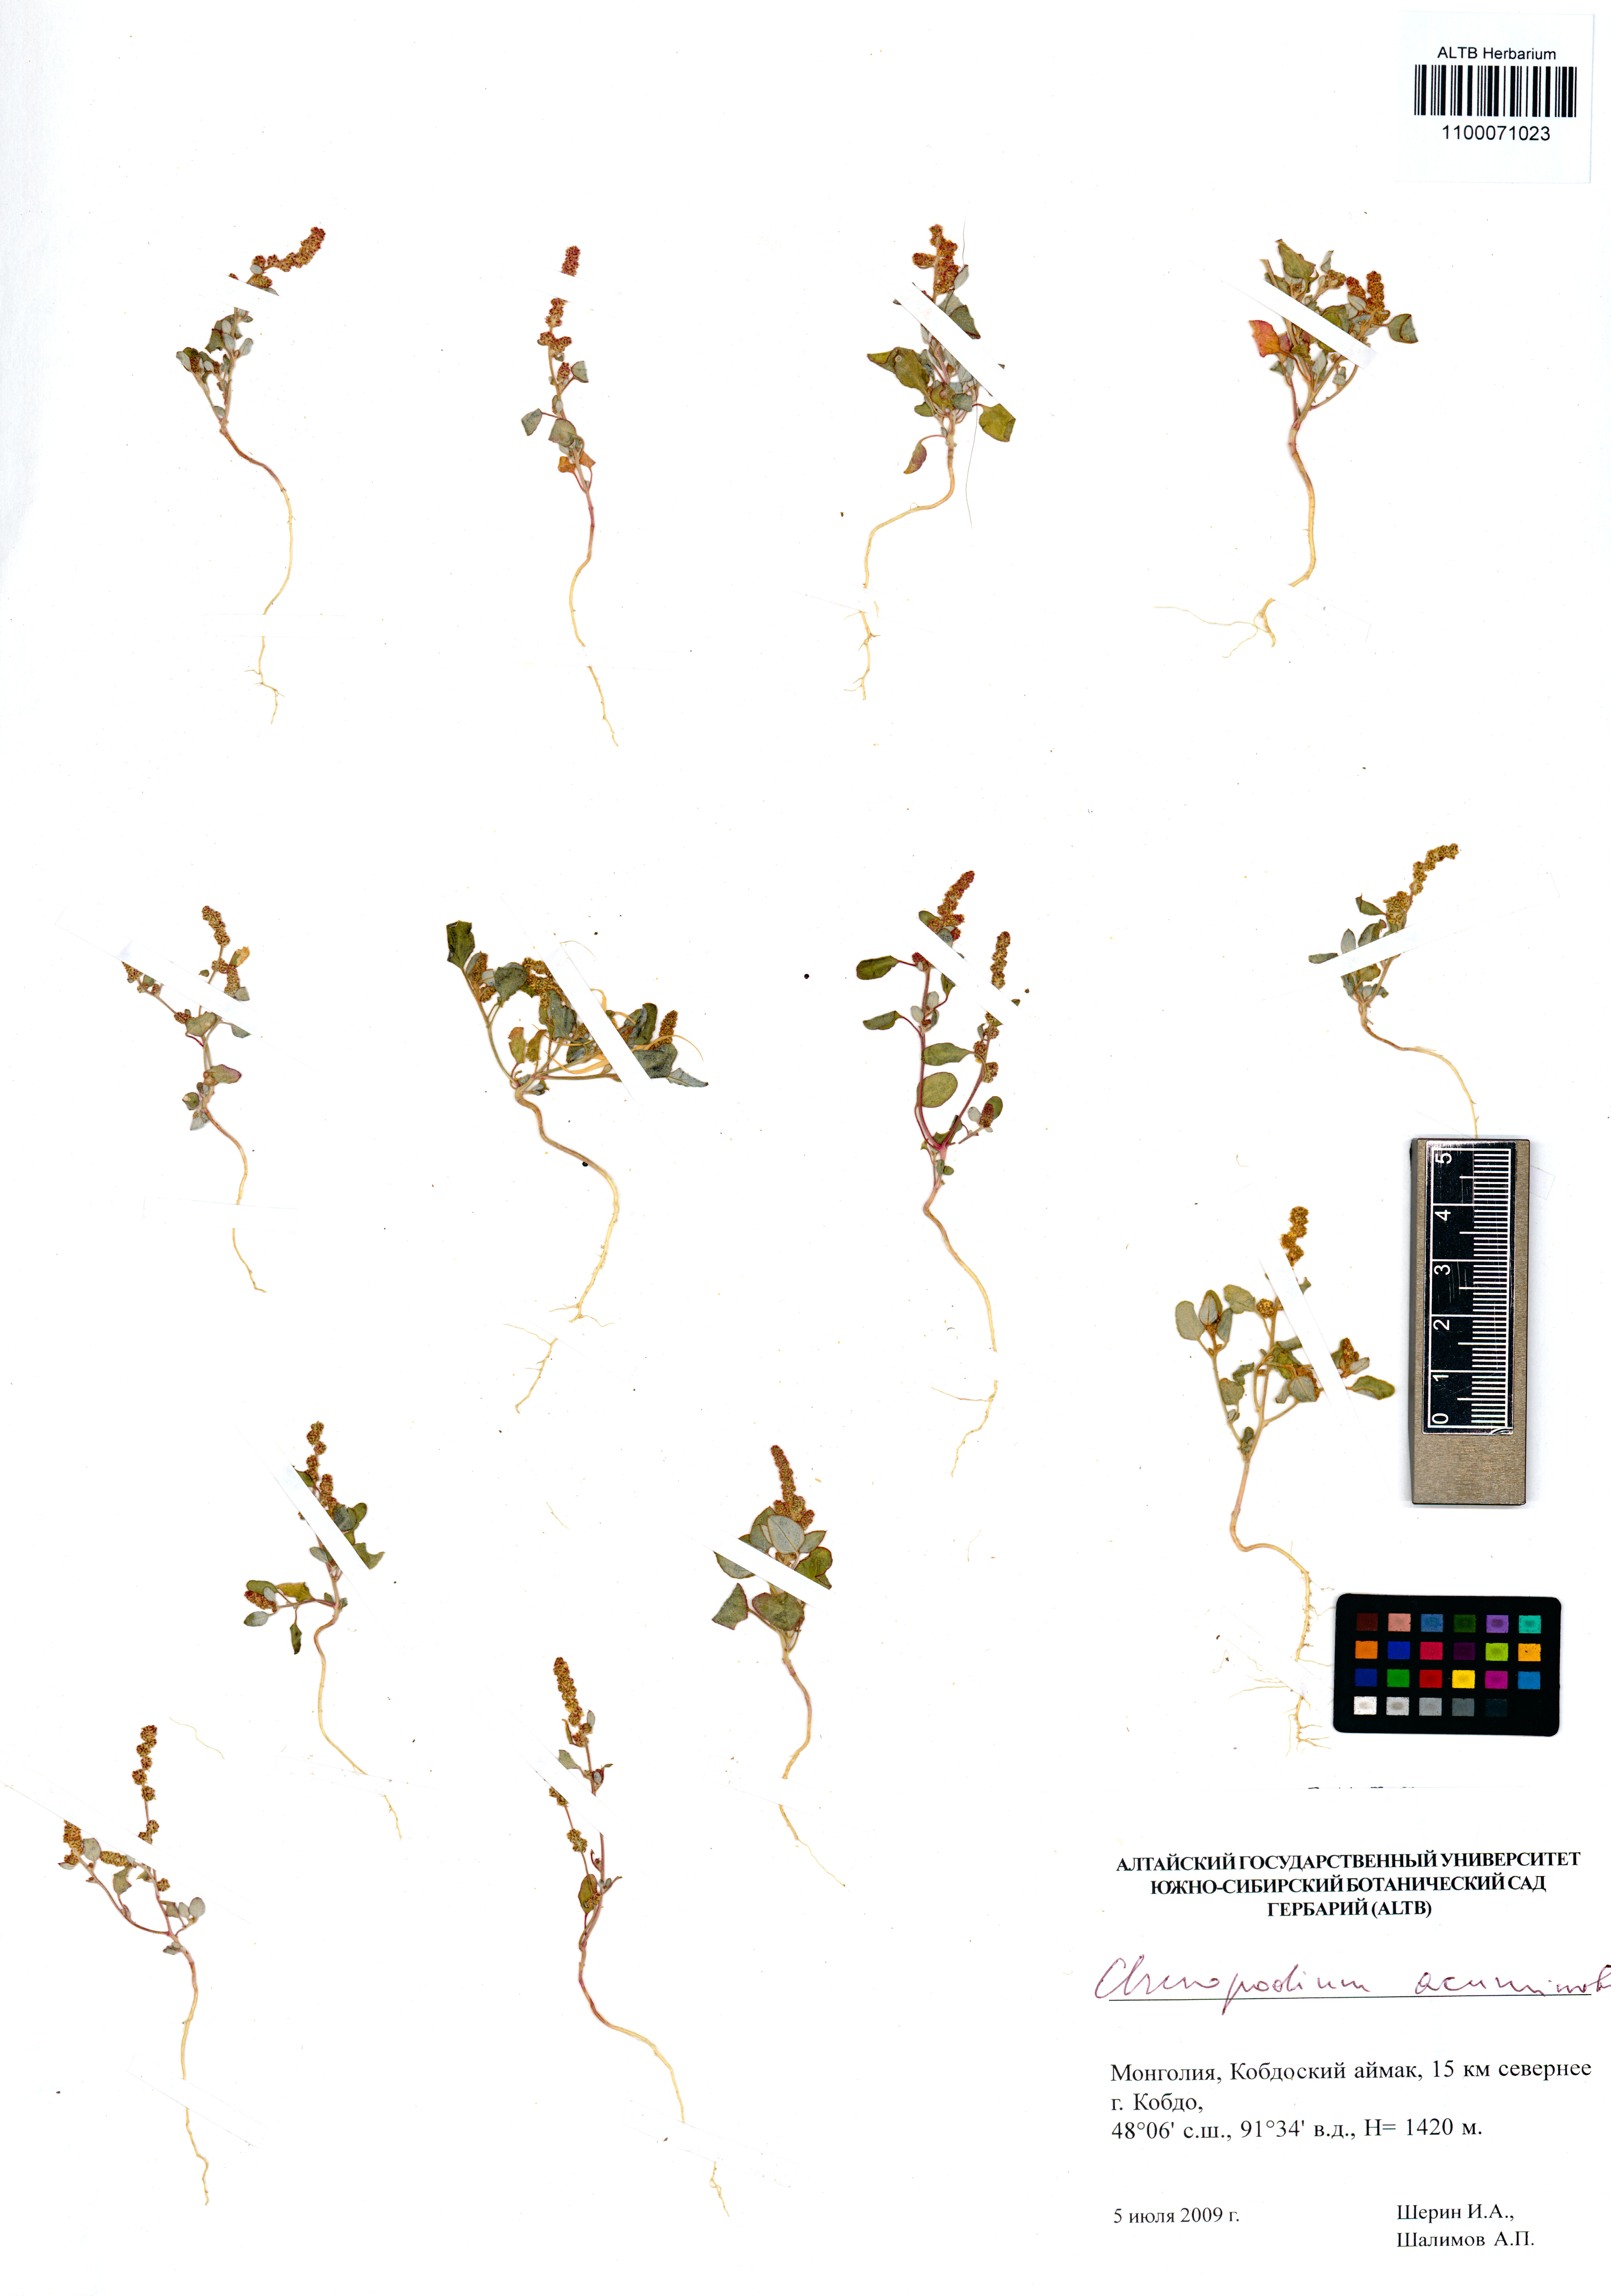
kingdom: Plantae
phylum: Tracheophyta
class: Magnoliopsida
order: Caryophyllales
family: Amaranthaceae
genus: Oxybasis
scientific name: Oxybasis rubra
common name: Red goosefoot
